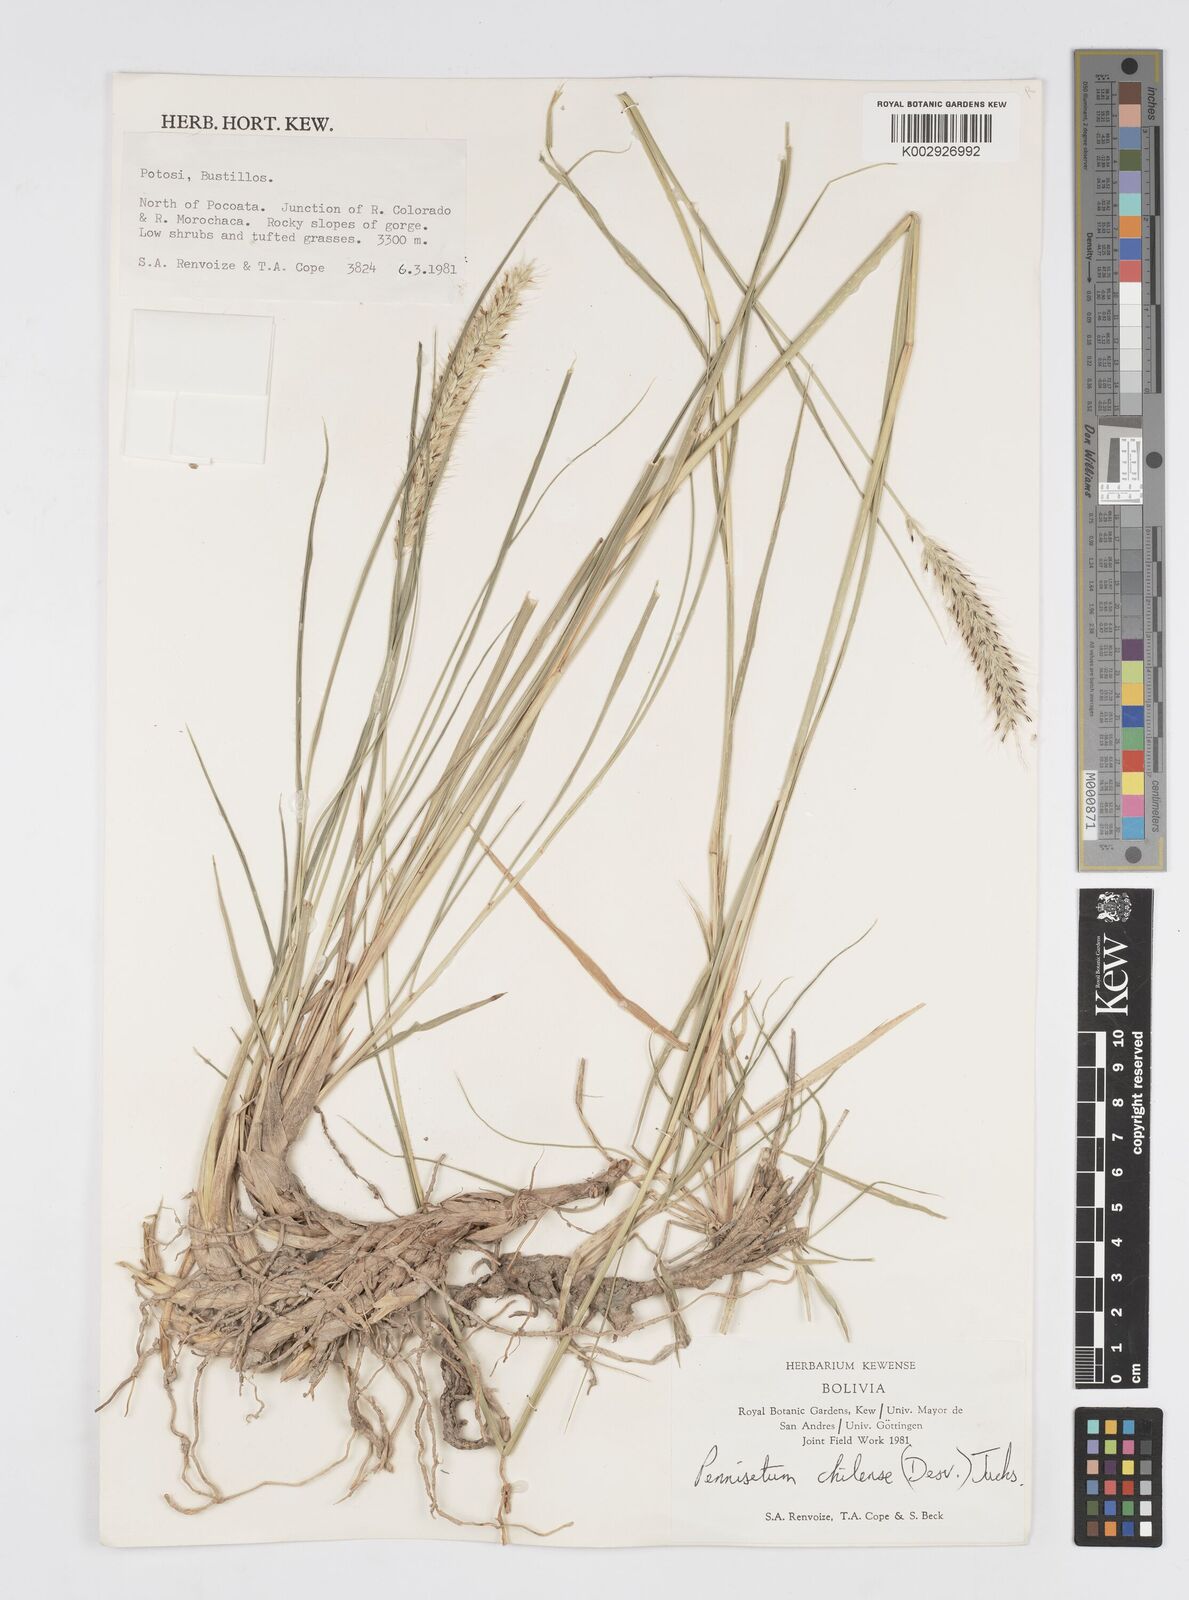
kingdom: Plantae
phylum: Tracheophyta
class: Liliopsida
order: Poales
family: Poaceae
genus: Cenchrus
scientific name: Cenchrus chilensis
